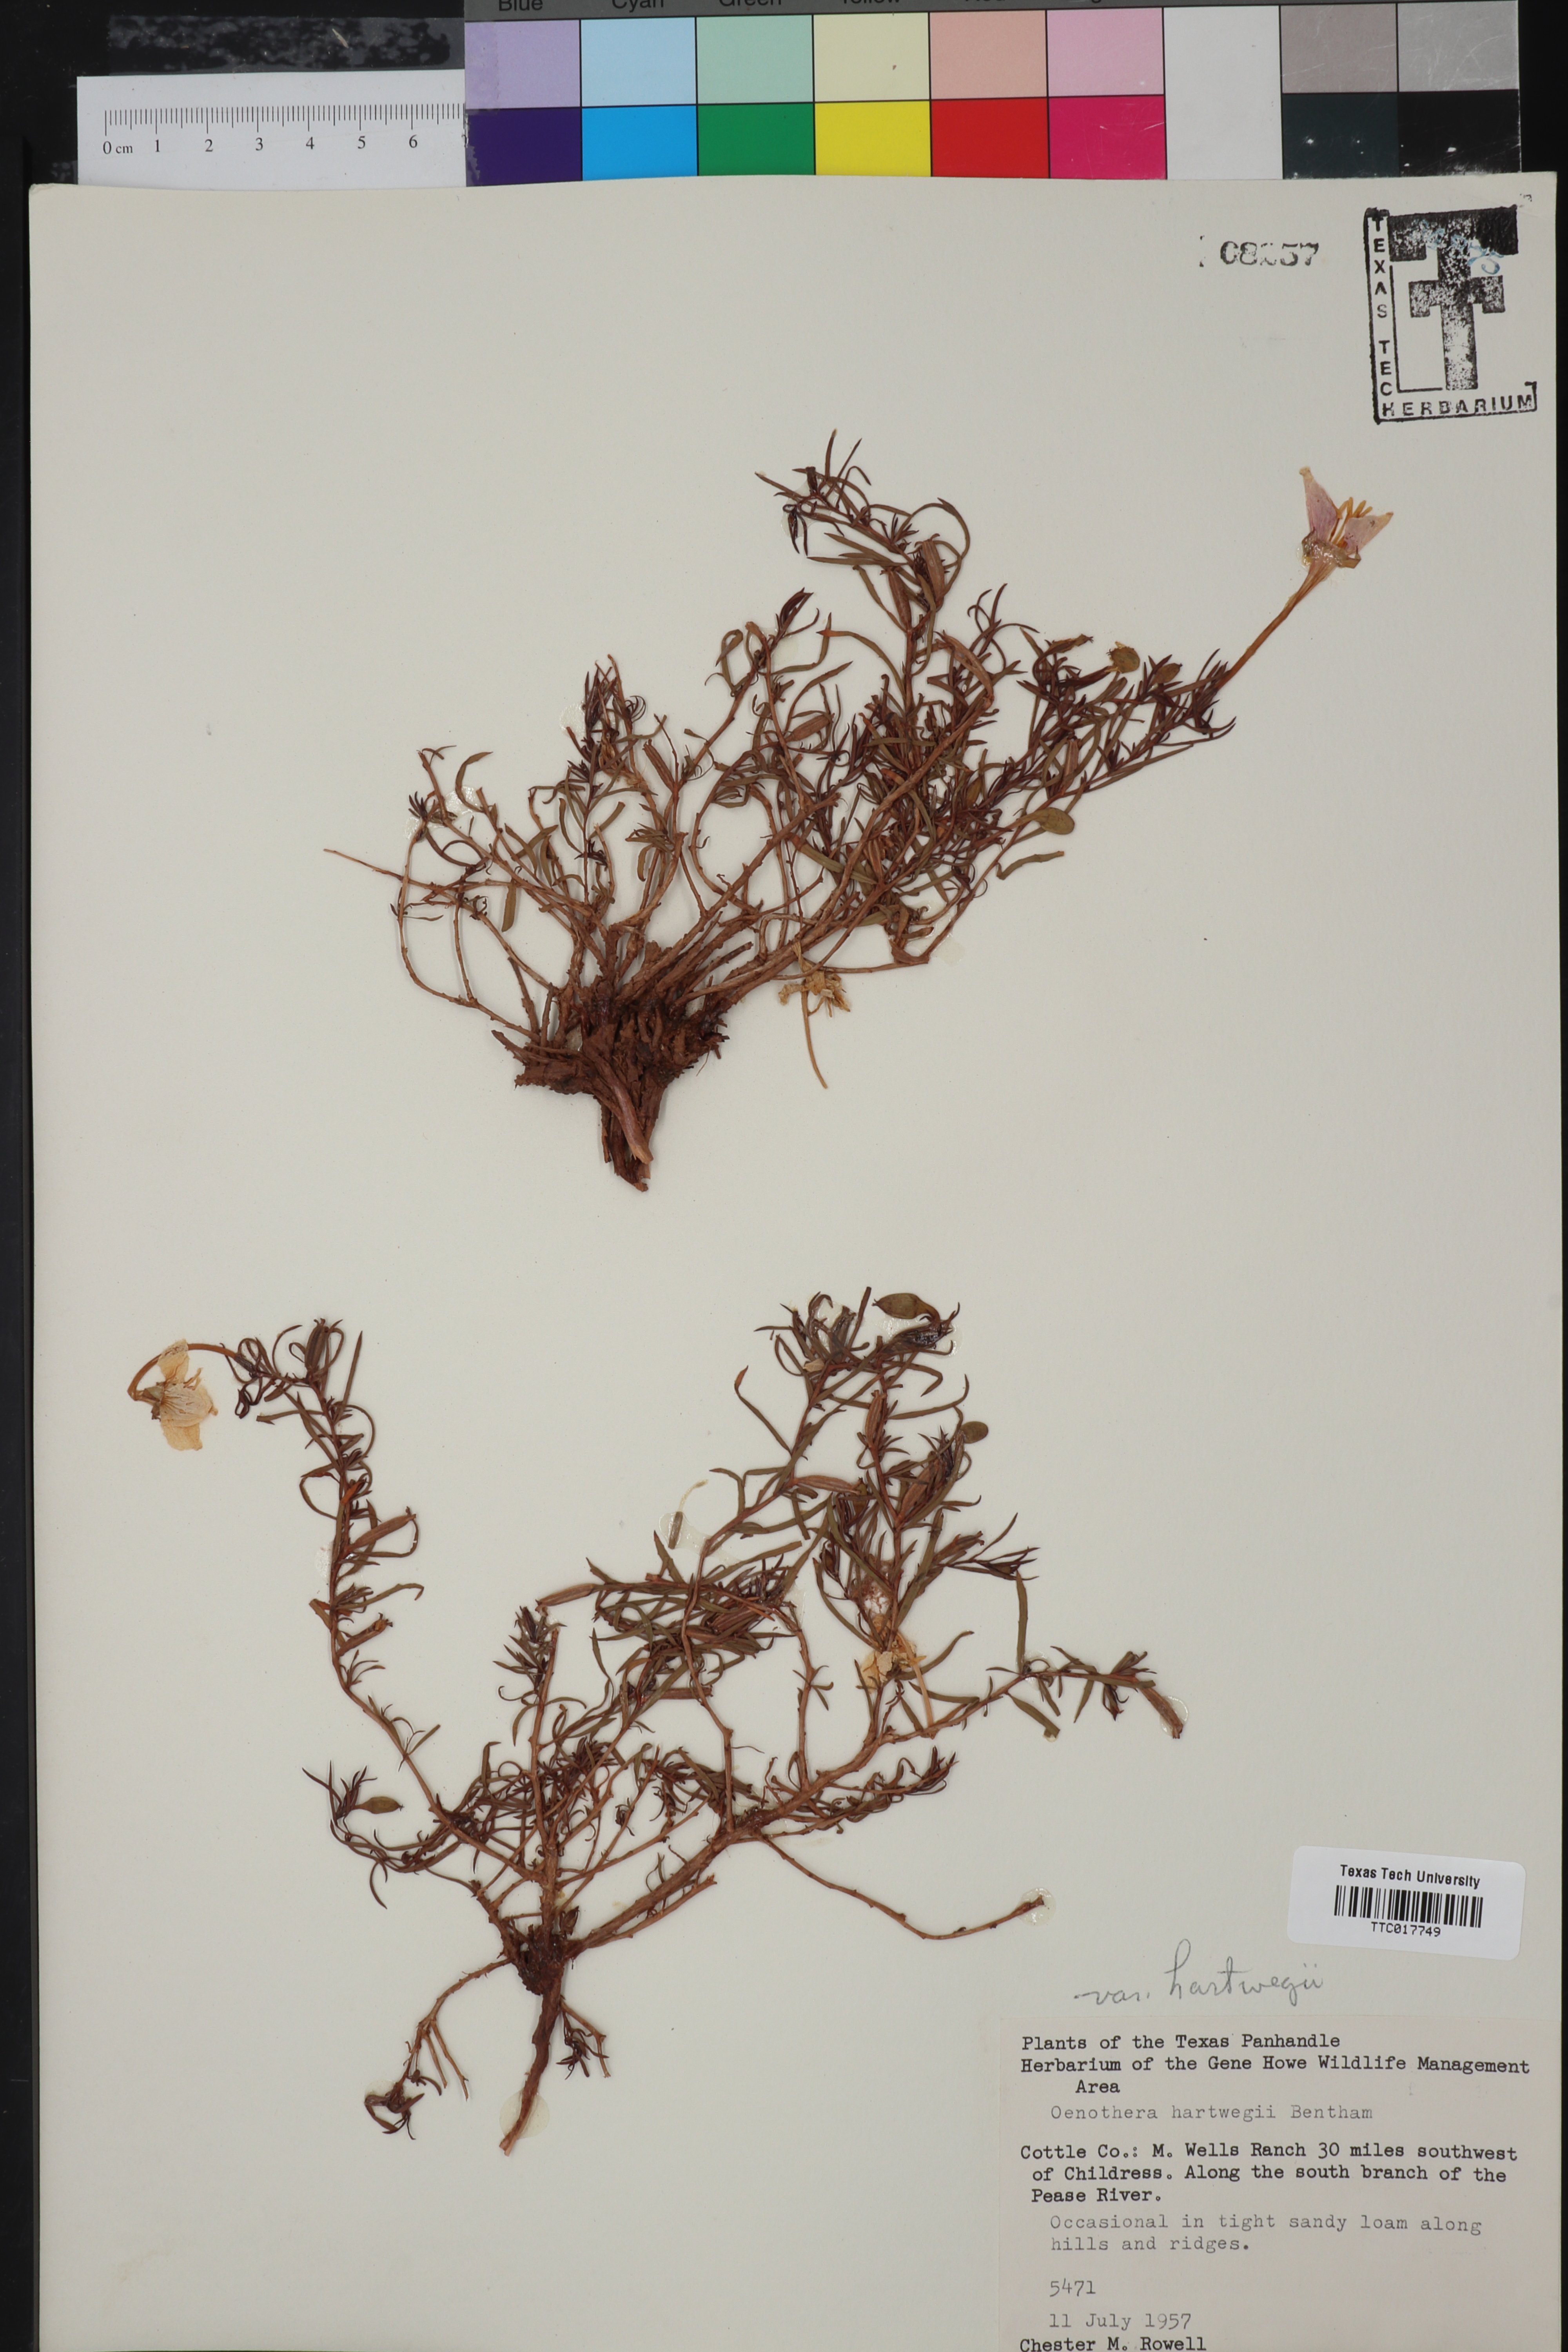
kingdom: Plantae
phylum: Tracheophyta
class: Magnoliopsida
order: Myrtales
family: Onagraceae
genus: Oenothera
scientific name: Oenothera hartwegii
